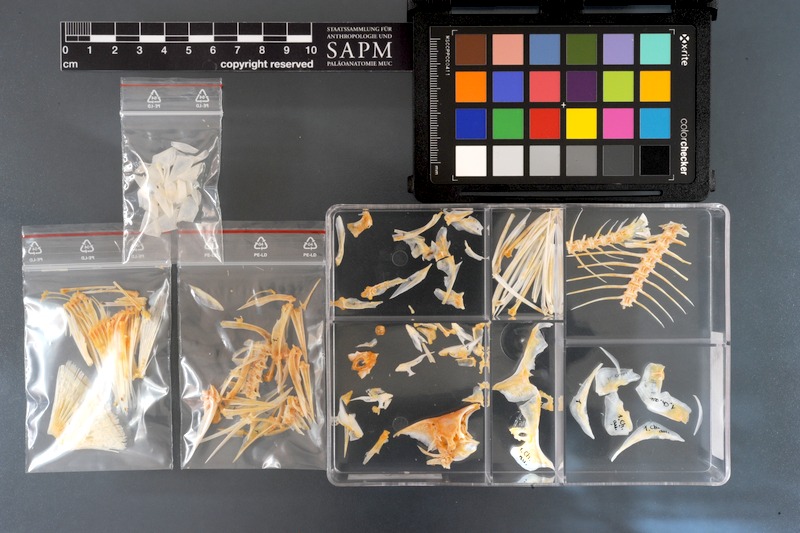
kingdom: Animalia
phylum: Chordata
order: Perciformes
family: Chaetodontidae
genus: Chaetodon
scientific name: Chaetodon auriga
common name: Threadfin butterflyfish
